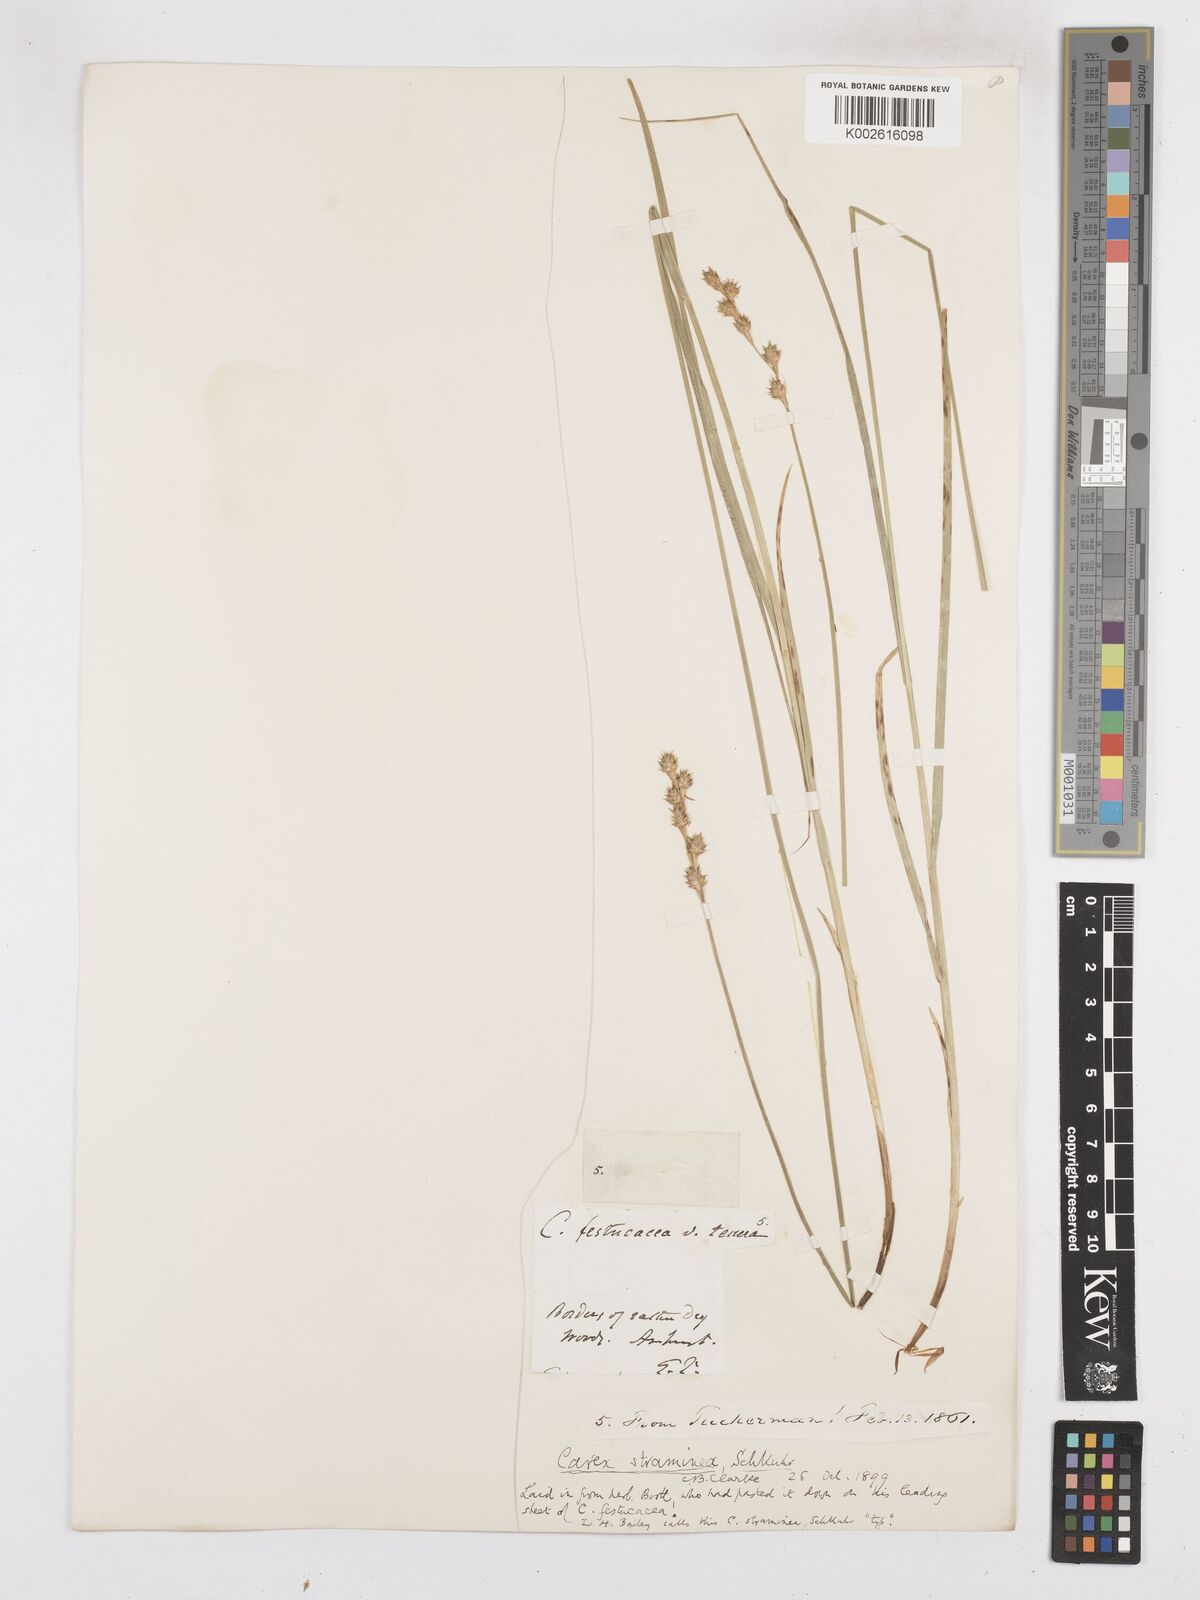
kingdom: Plantae
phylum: Tracheophyta
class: Liliopsida
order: Poales
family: Cyperaceae
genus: Carex
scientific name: Carex brevior
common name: Brevior sedge
